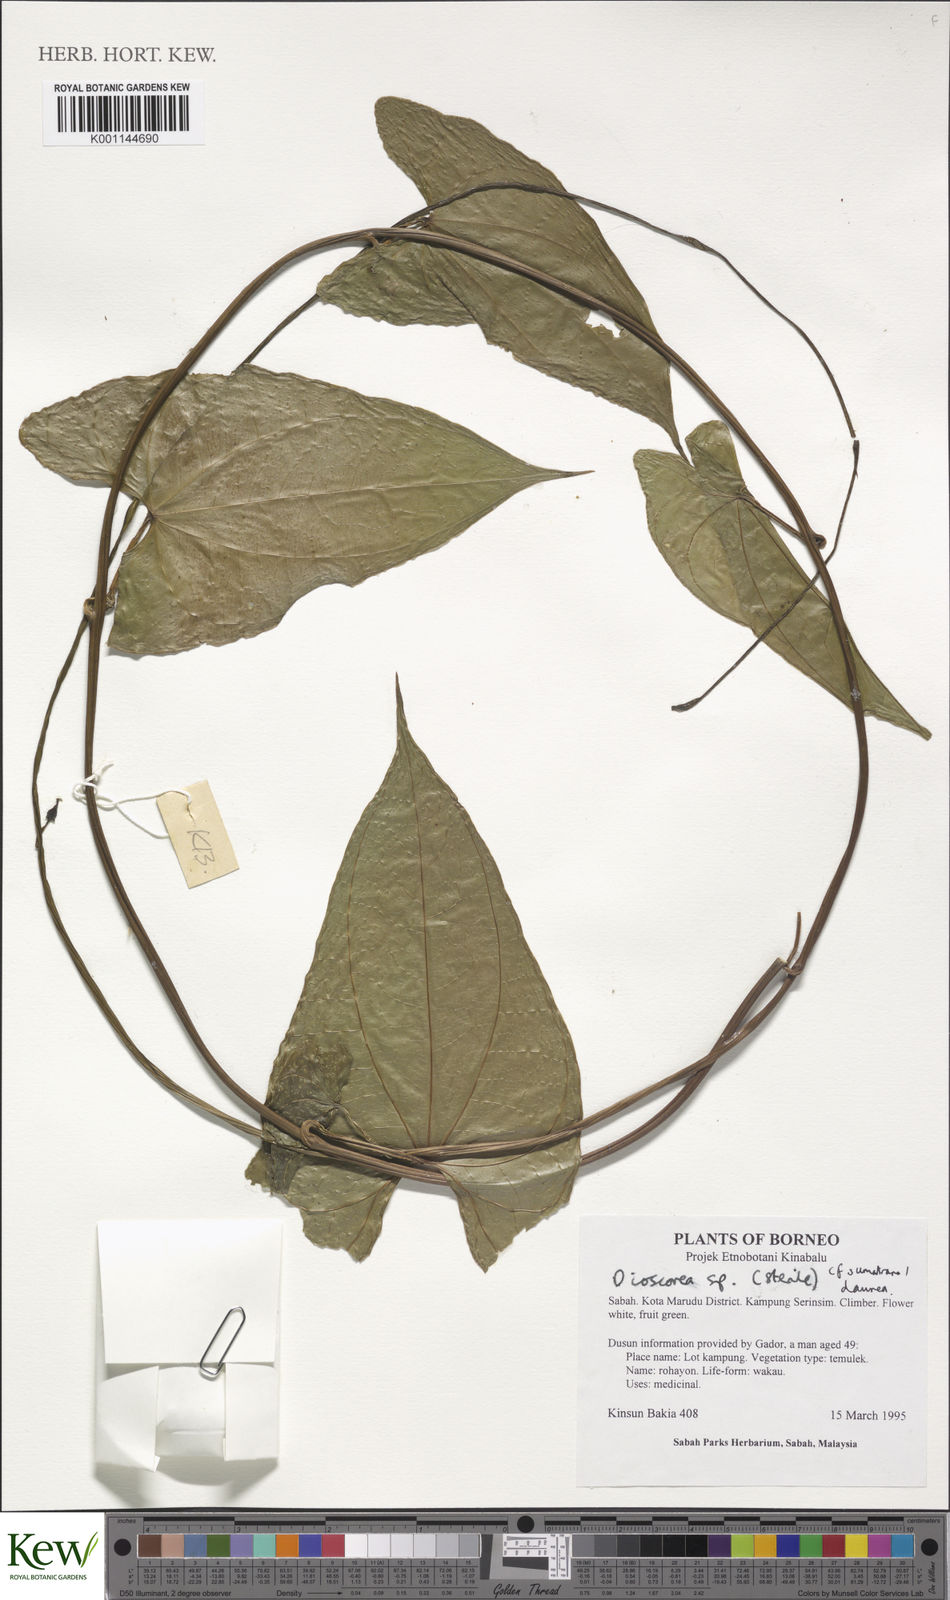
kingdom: Plantae
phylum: Tracheophyta
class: Liliopsida
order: Dioscoreales
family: Dioscoreaceae
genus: Dioscorea
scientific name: Dioscorea
